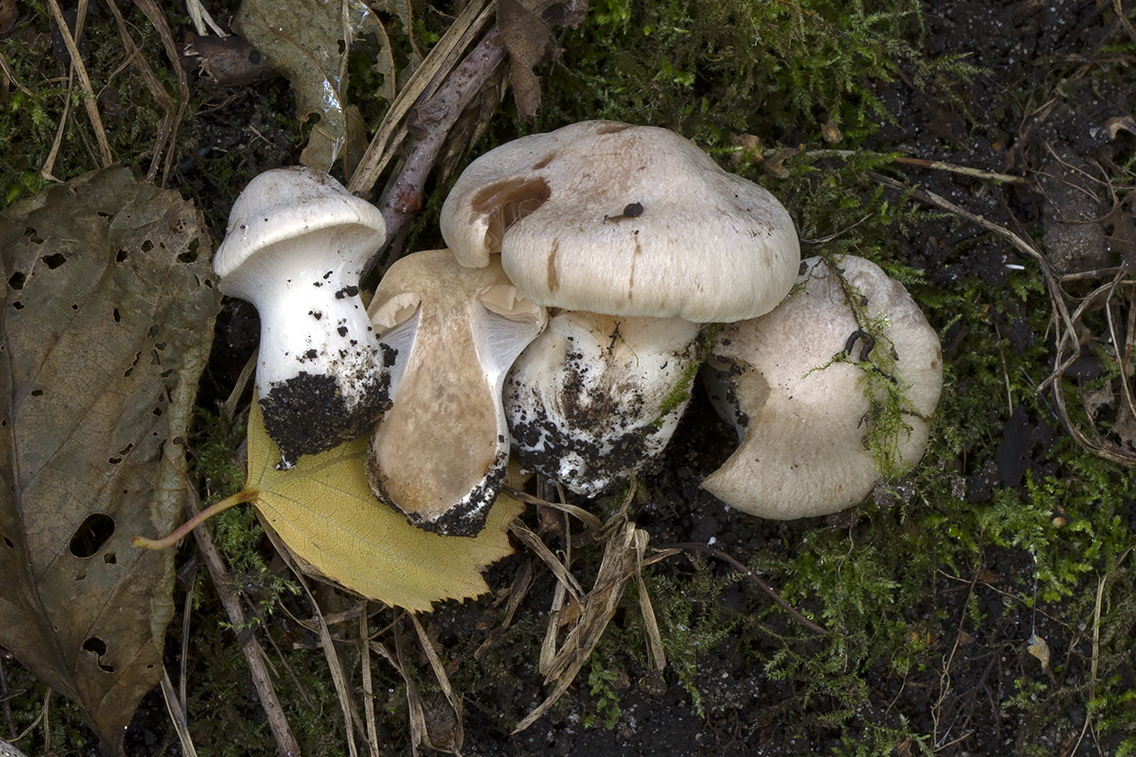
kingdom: Fungi
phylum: Basidiomycota
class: Agaricomycetes
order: Agaricales
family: Cortinariaceae
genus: Cortinarius
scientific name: Cortinarius urbicus
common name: sølv-slørhat
